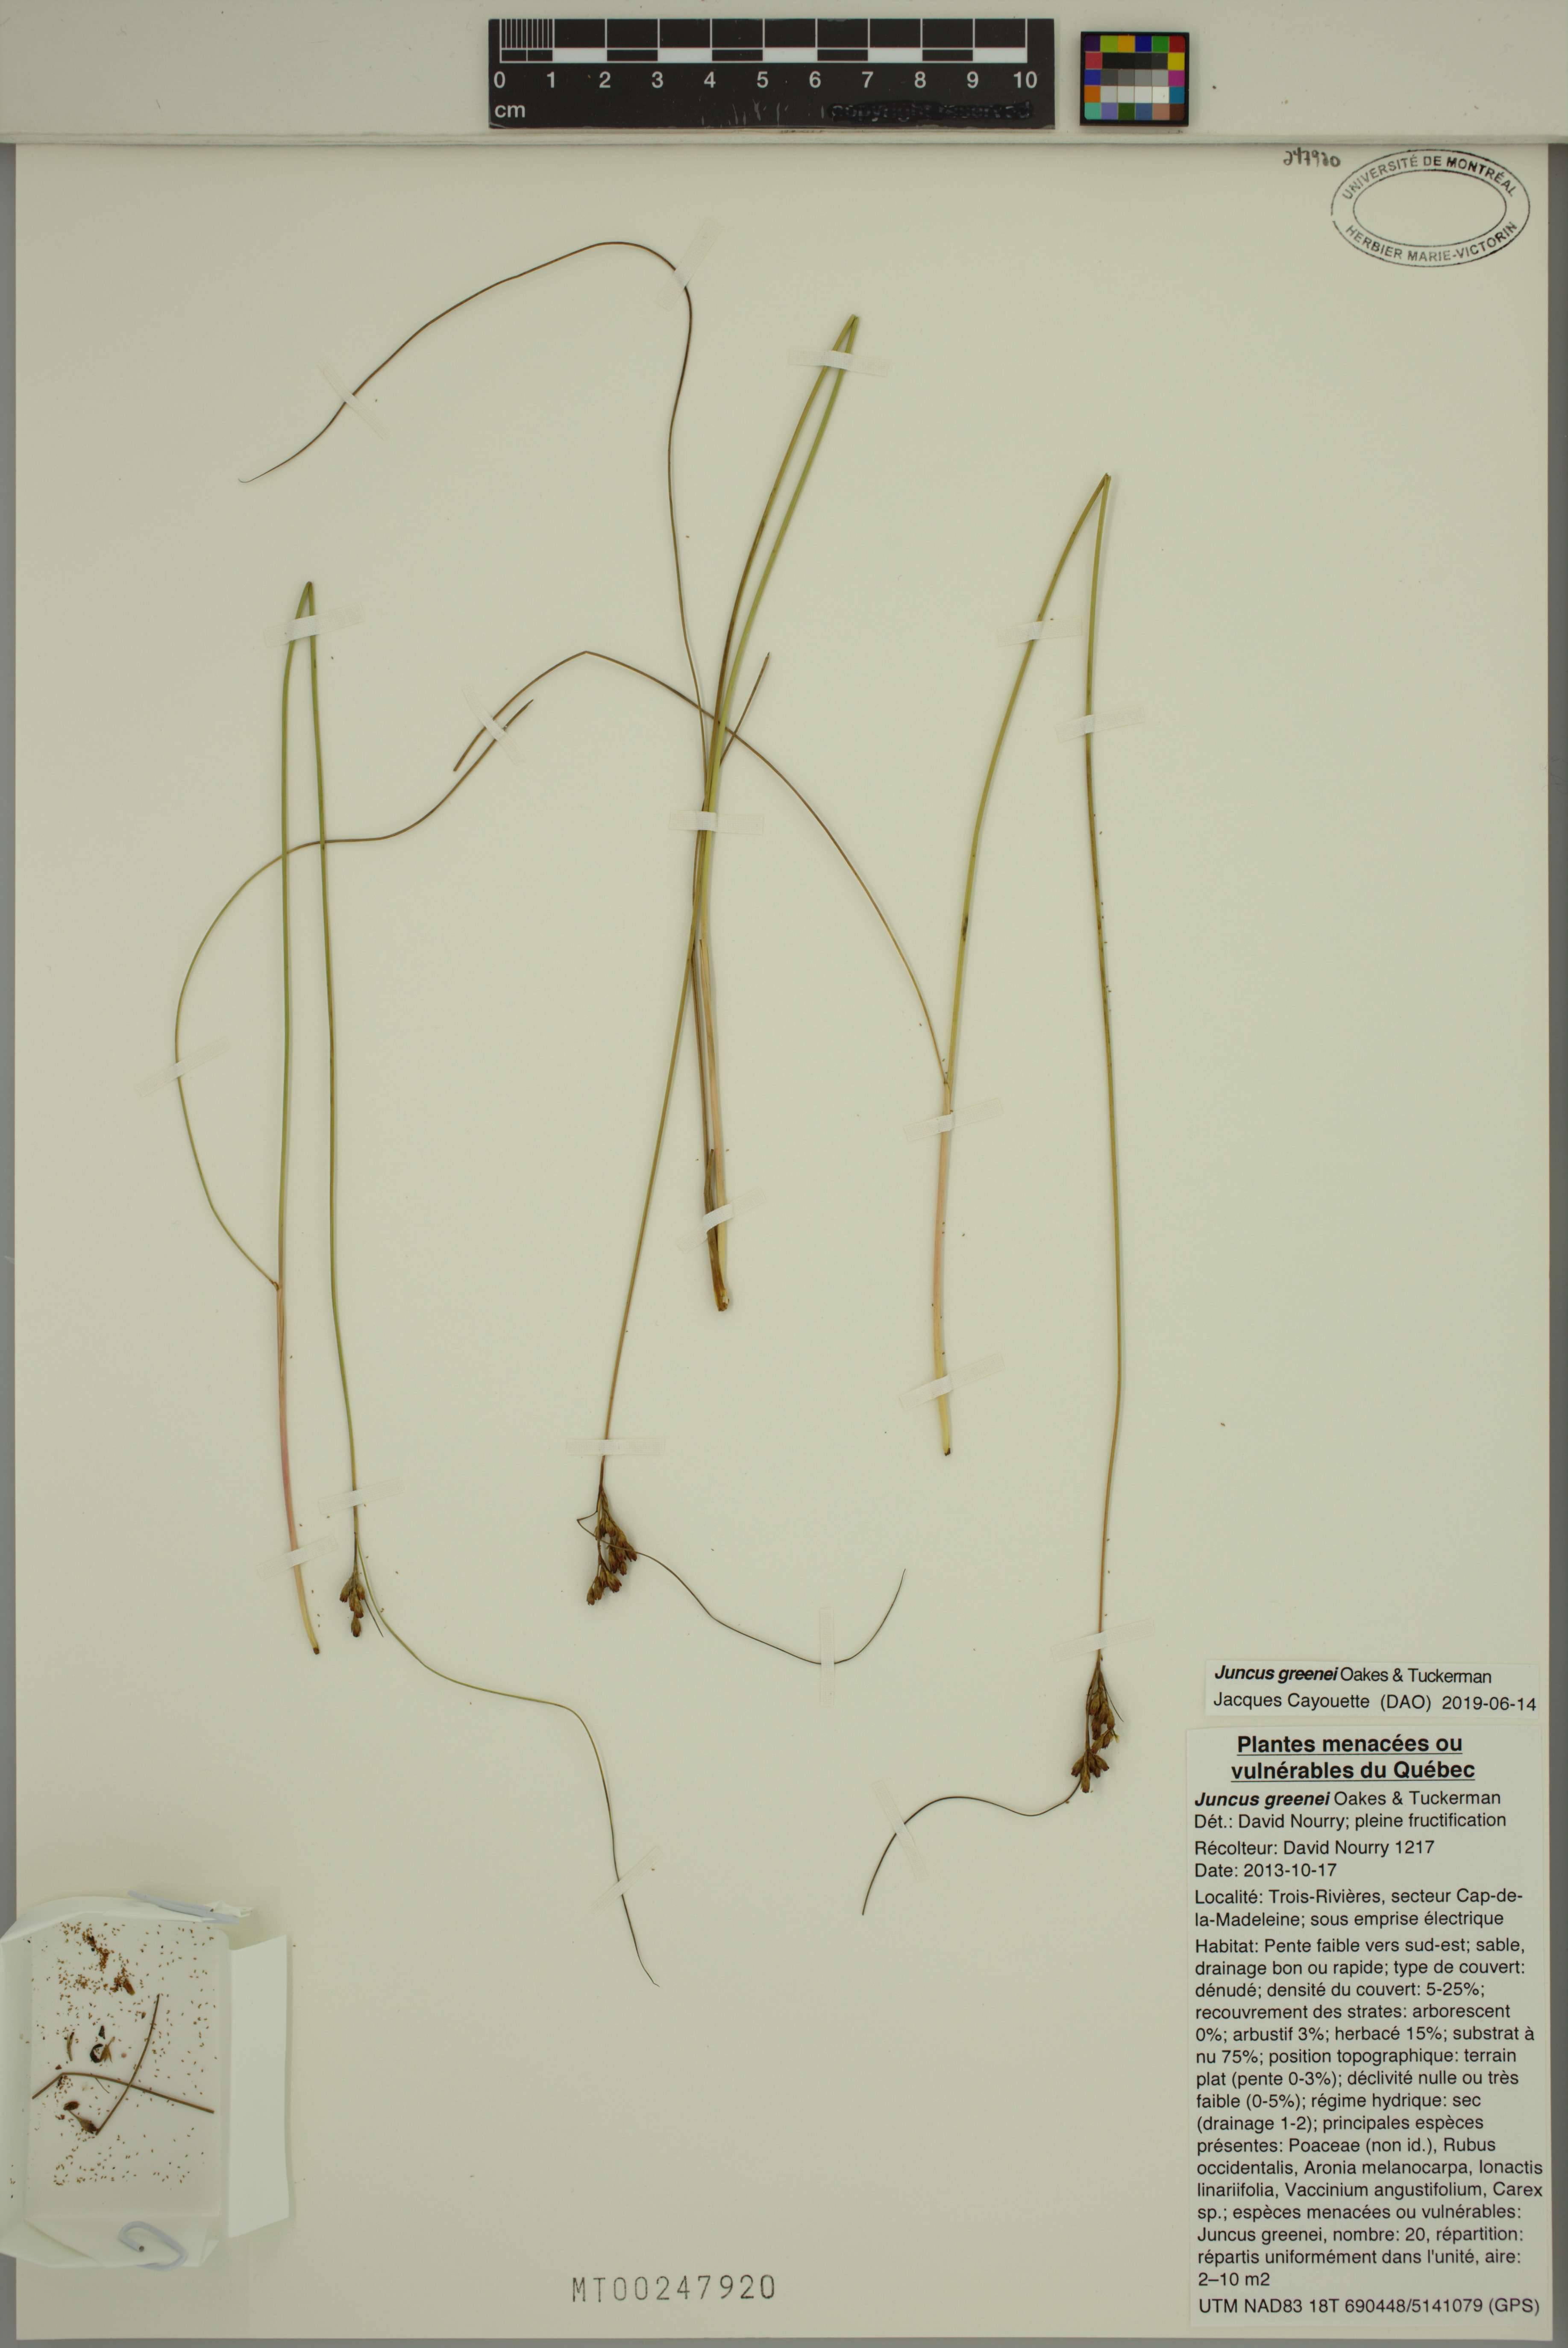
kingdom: Plantae
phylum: Tracheophyta
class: Liliopsida
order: Poales
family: Juncaceae
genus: Juncus
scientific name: Juncus greenei
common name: Greene's rush
